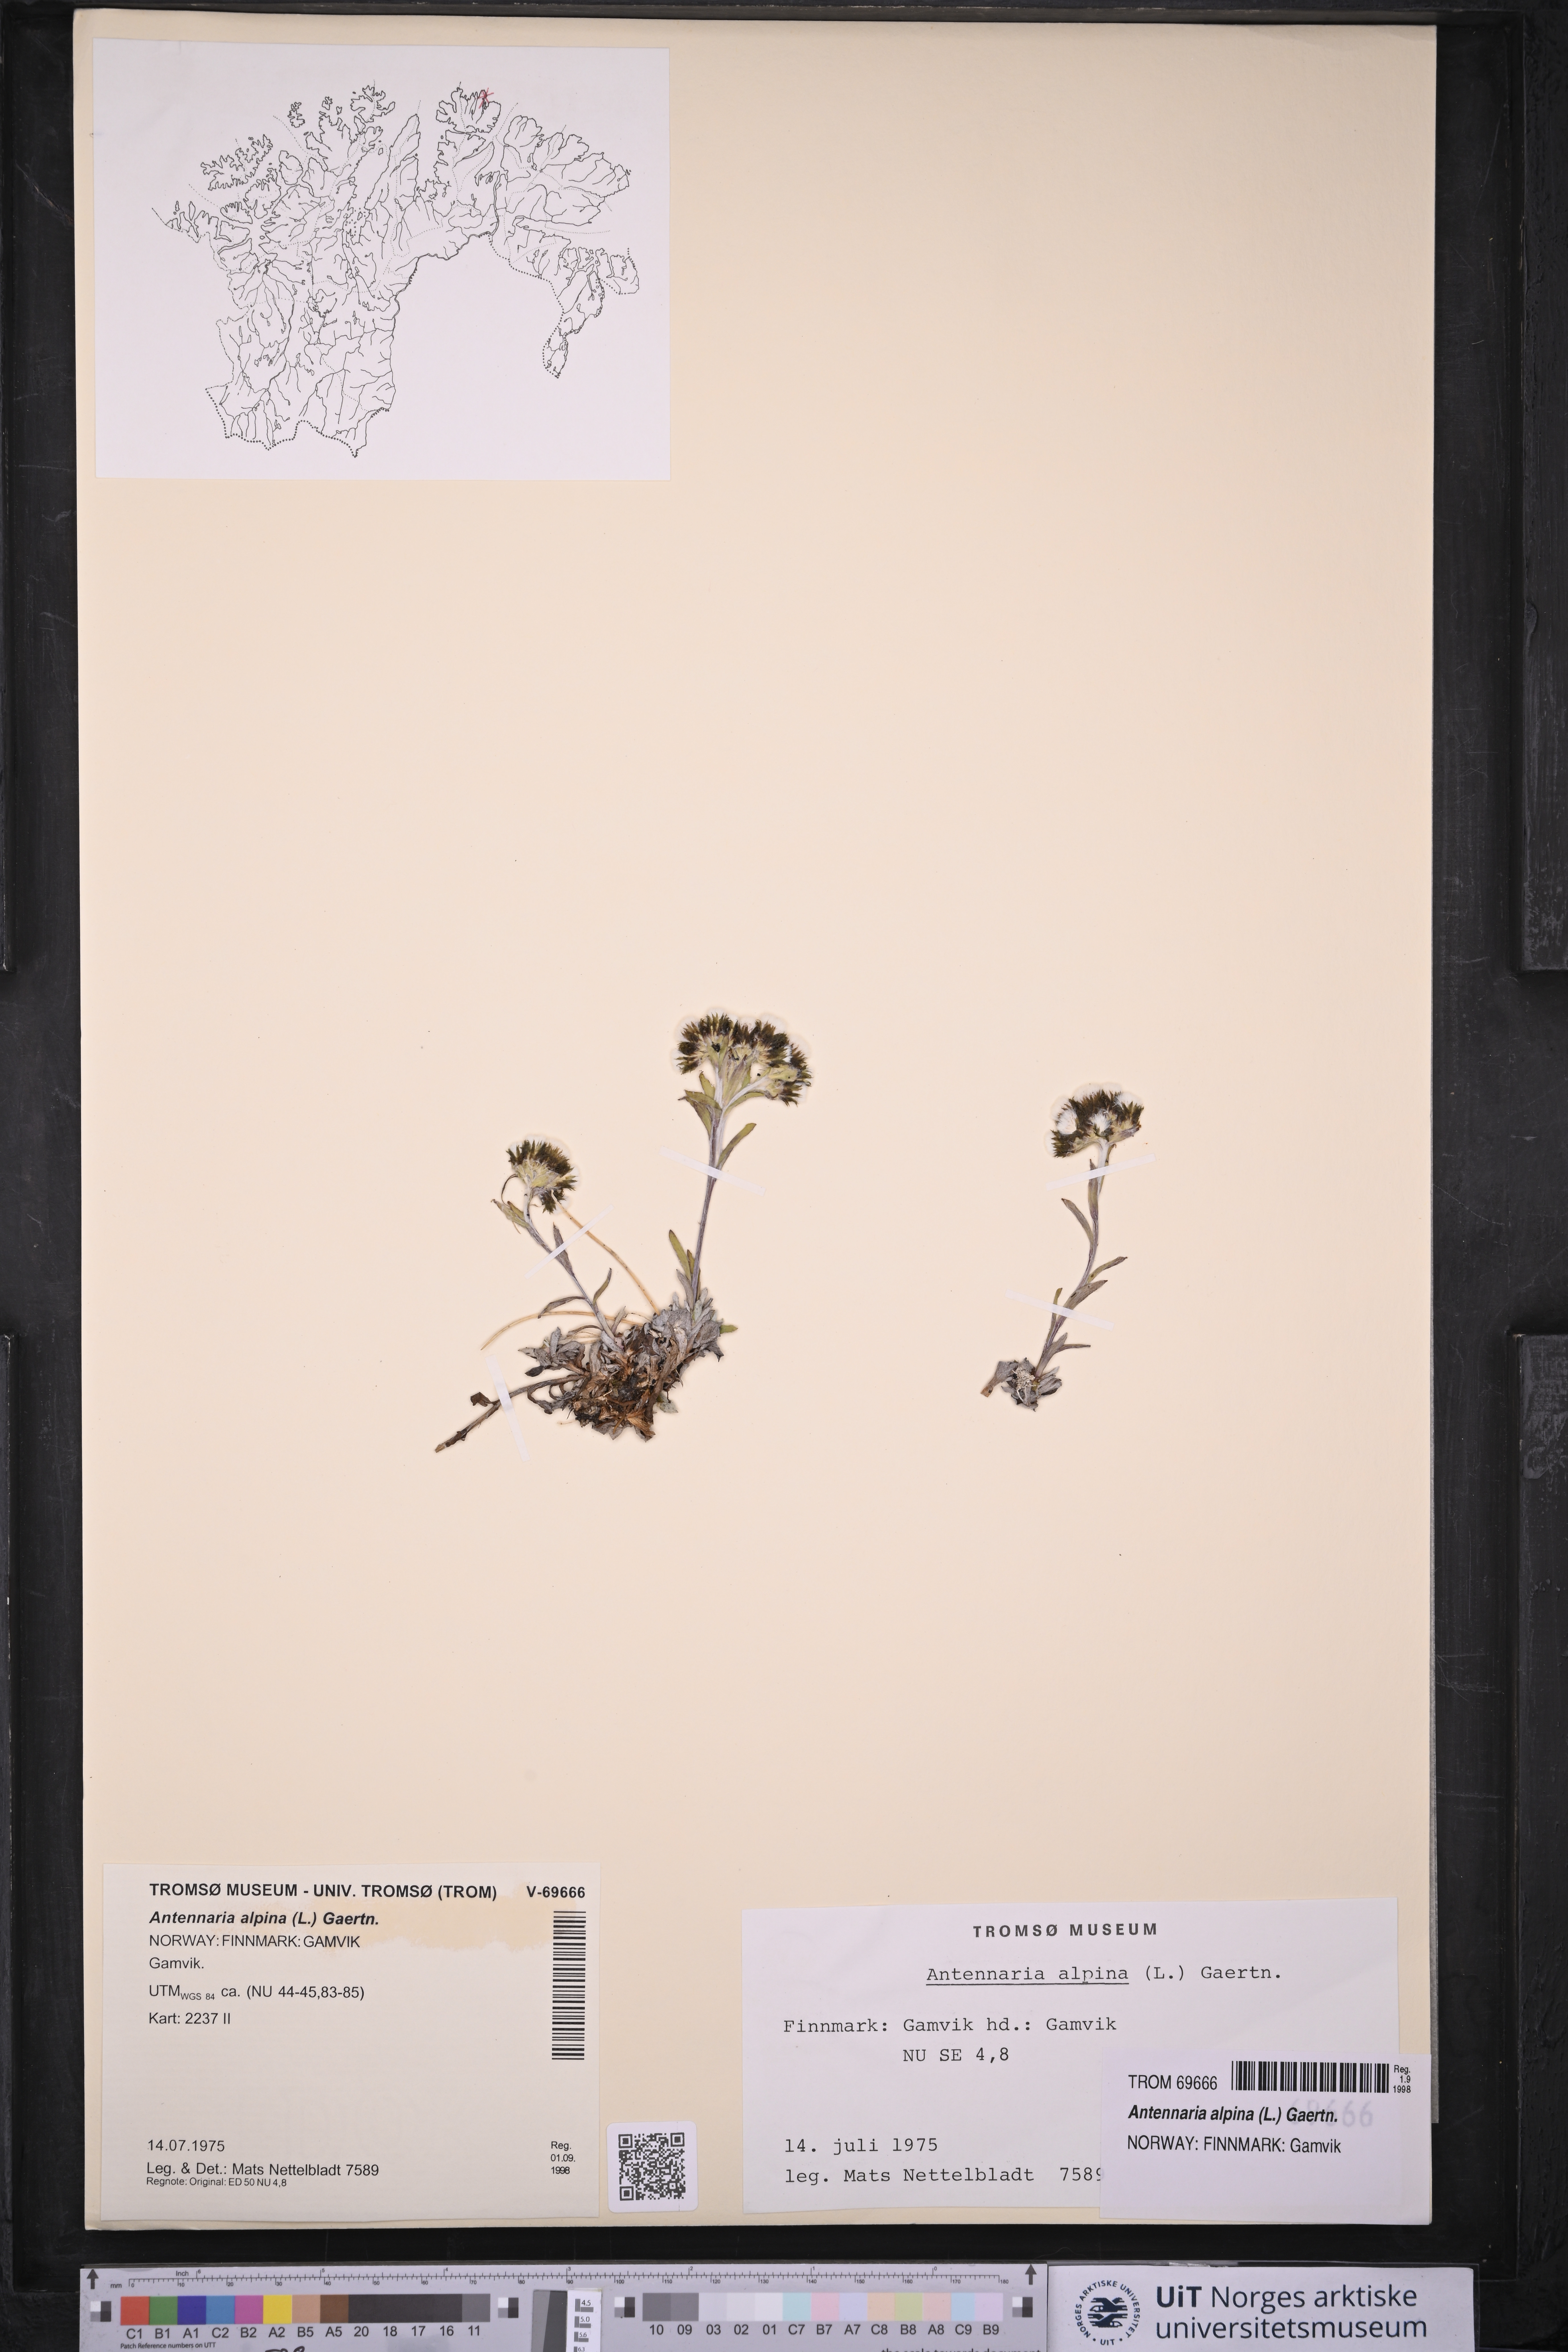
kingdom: Plantae
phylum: Tracheophyta
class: Magnoliopsida
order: Asterales
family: Asteraceae
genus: Antennaria
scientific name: Antennaria alpina
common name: Alpine pussytoes
